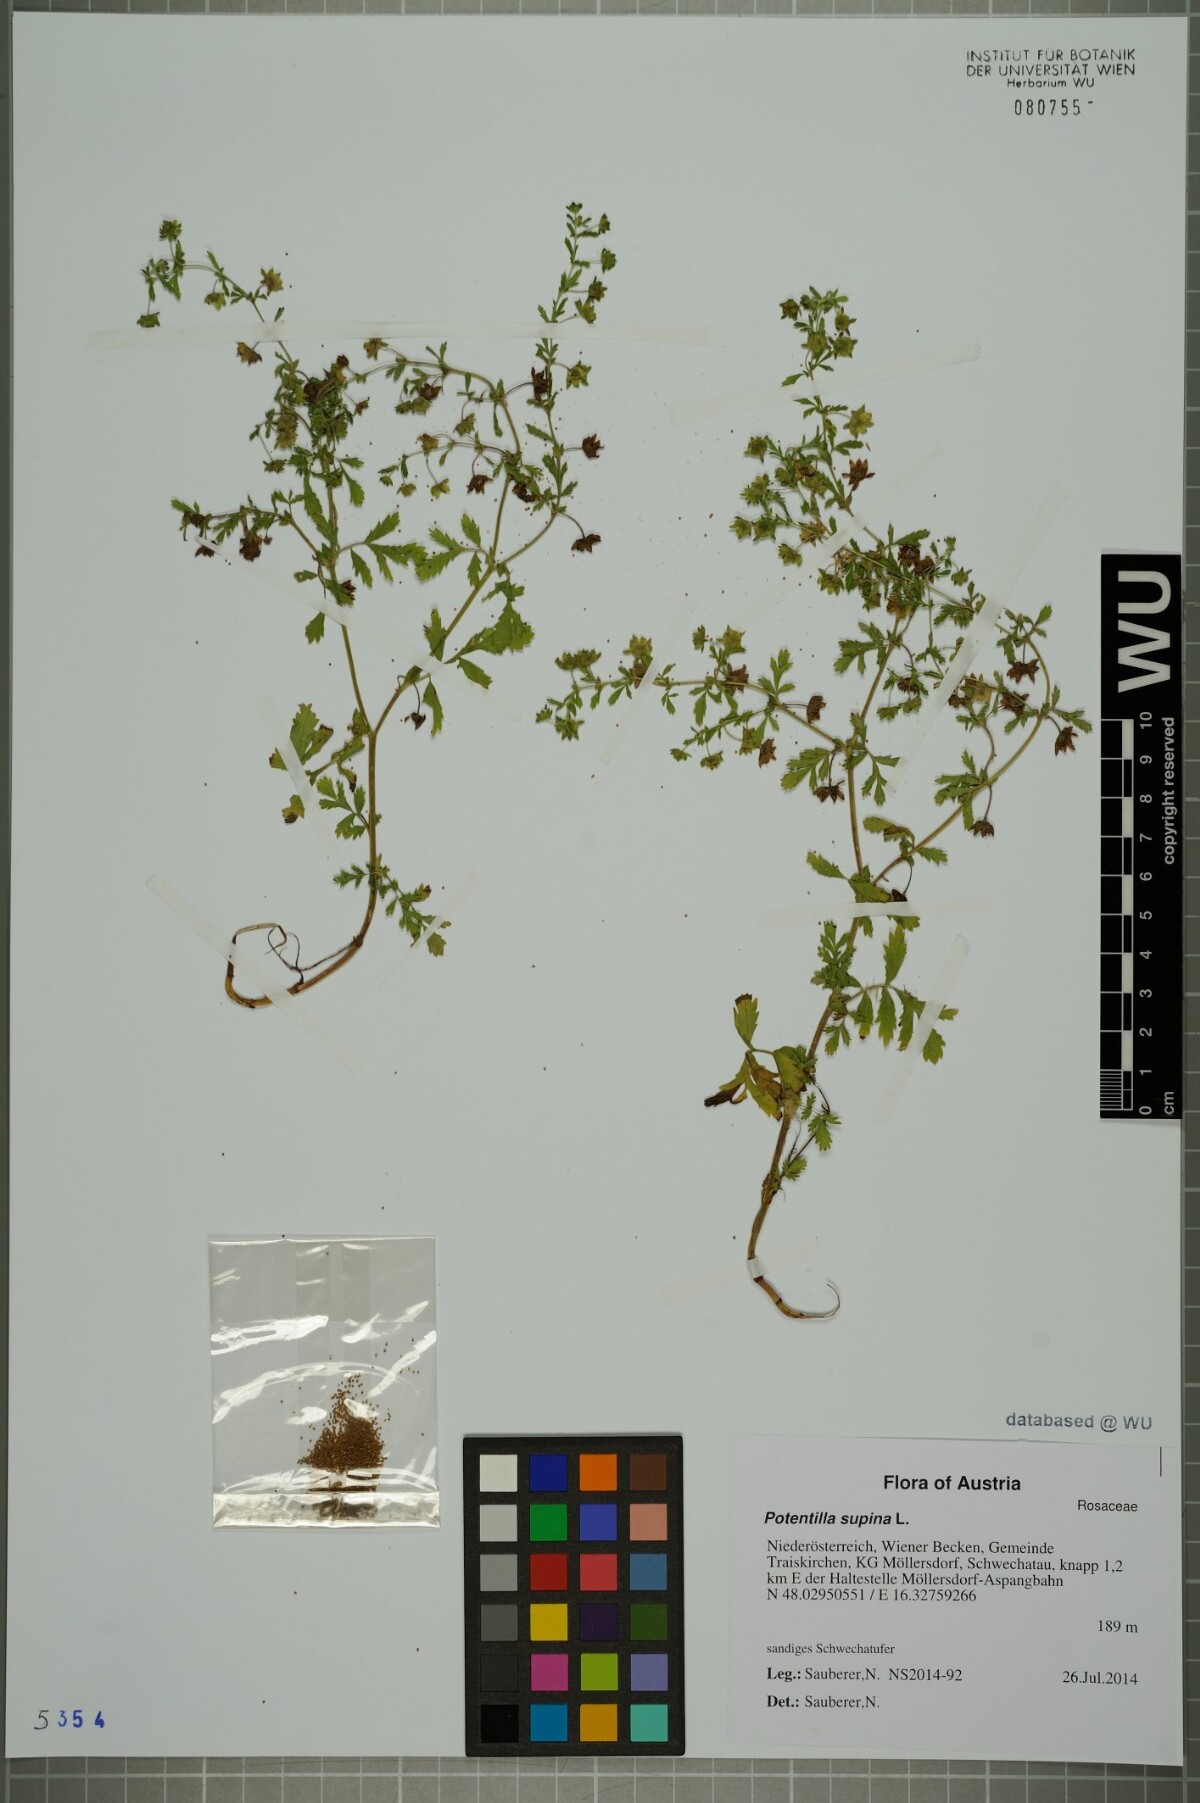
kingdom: Plantae
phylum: Tracheophyta
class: Magnoliopsida
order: Rosales
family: Rosaceae
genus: Potentilla
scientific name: Potentilla supina
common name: Prostrate cinquefoil
